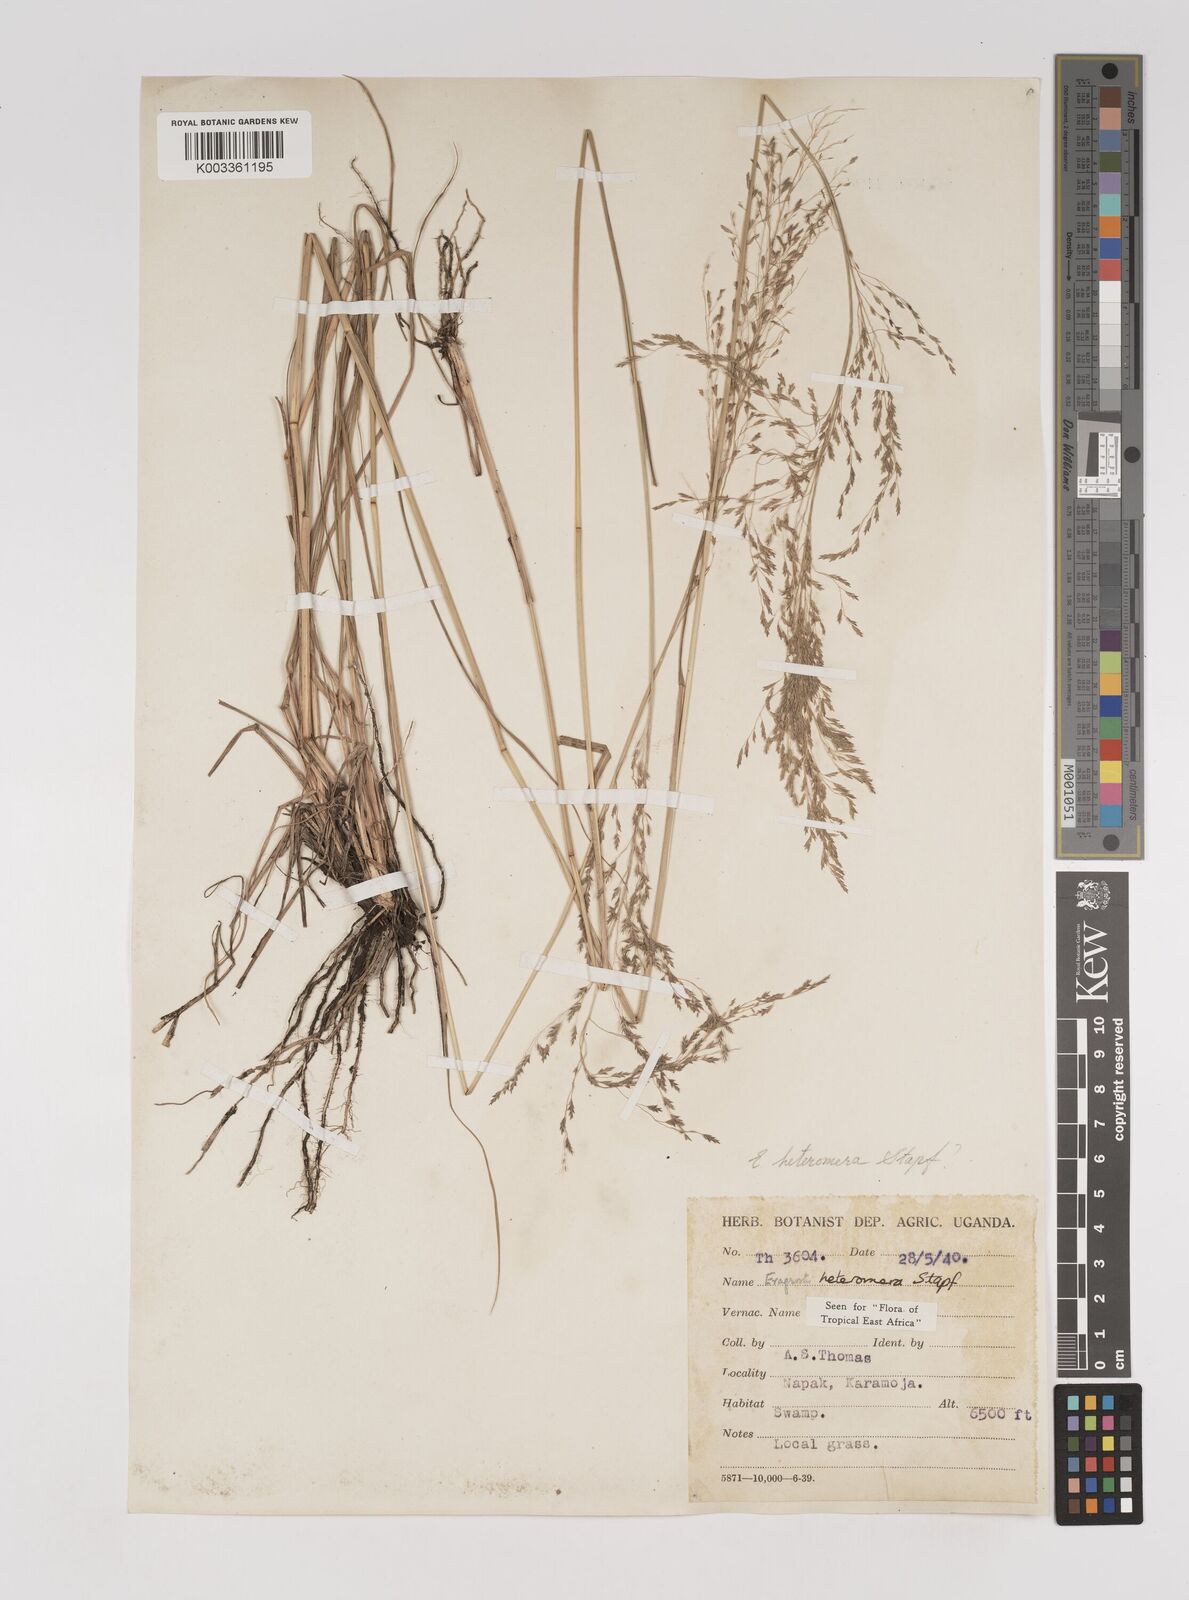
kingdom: Plantae
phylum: Tracheophyta
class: Liliopsida
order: Poales
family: Poaceae
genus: Eragrostis
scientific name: Eragrostis heteromera
